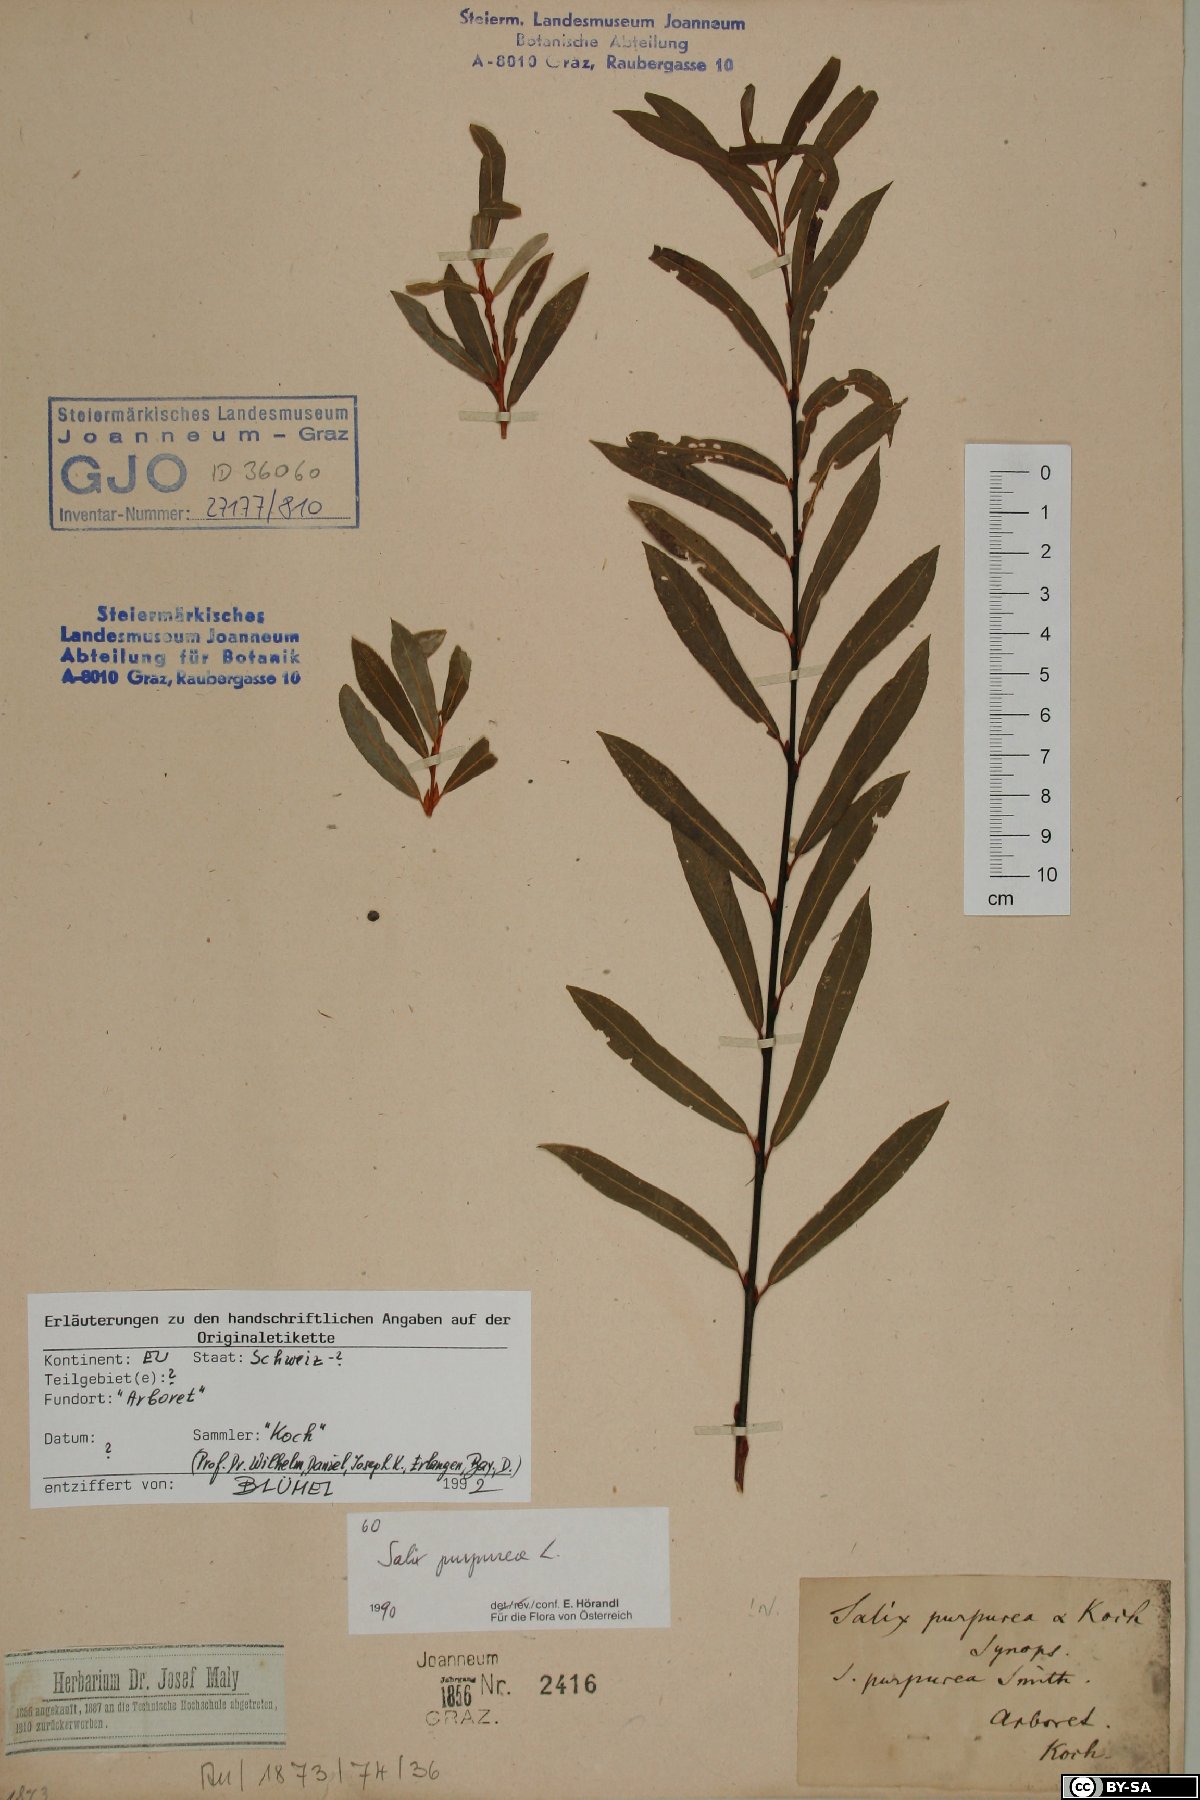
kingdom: Plantae
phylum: Tracheophyta
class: Magnoliopsida
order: Malpighiales
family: Salicaceae
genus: Salix
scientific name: Salix purpurea
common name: Purple willow
